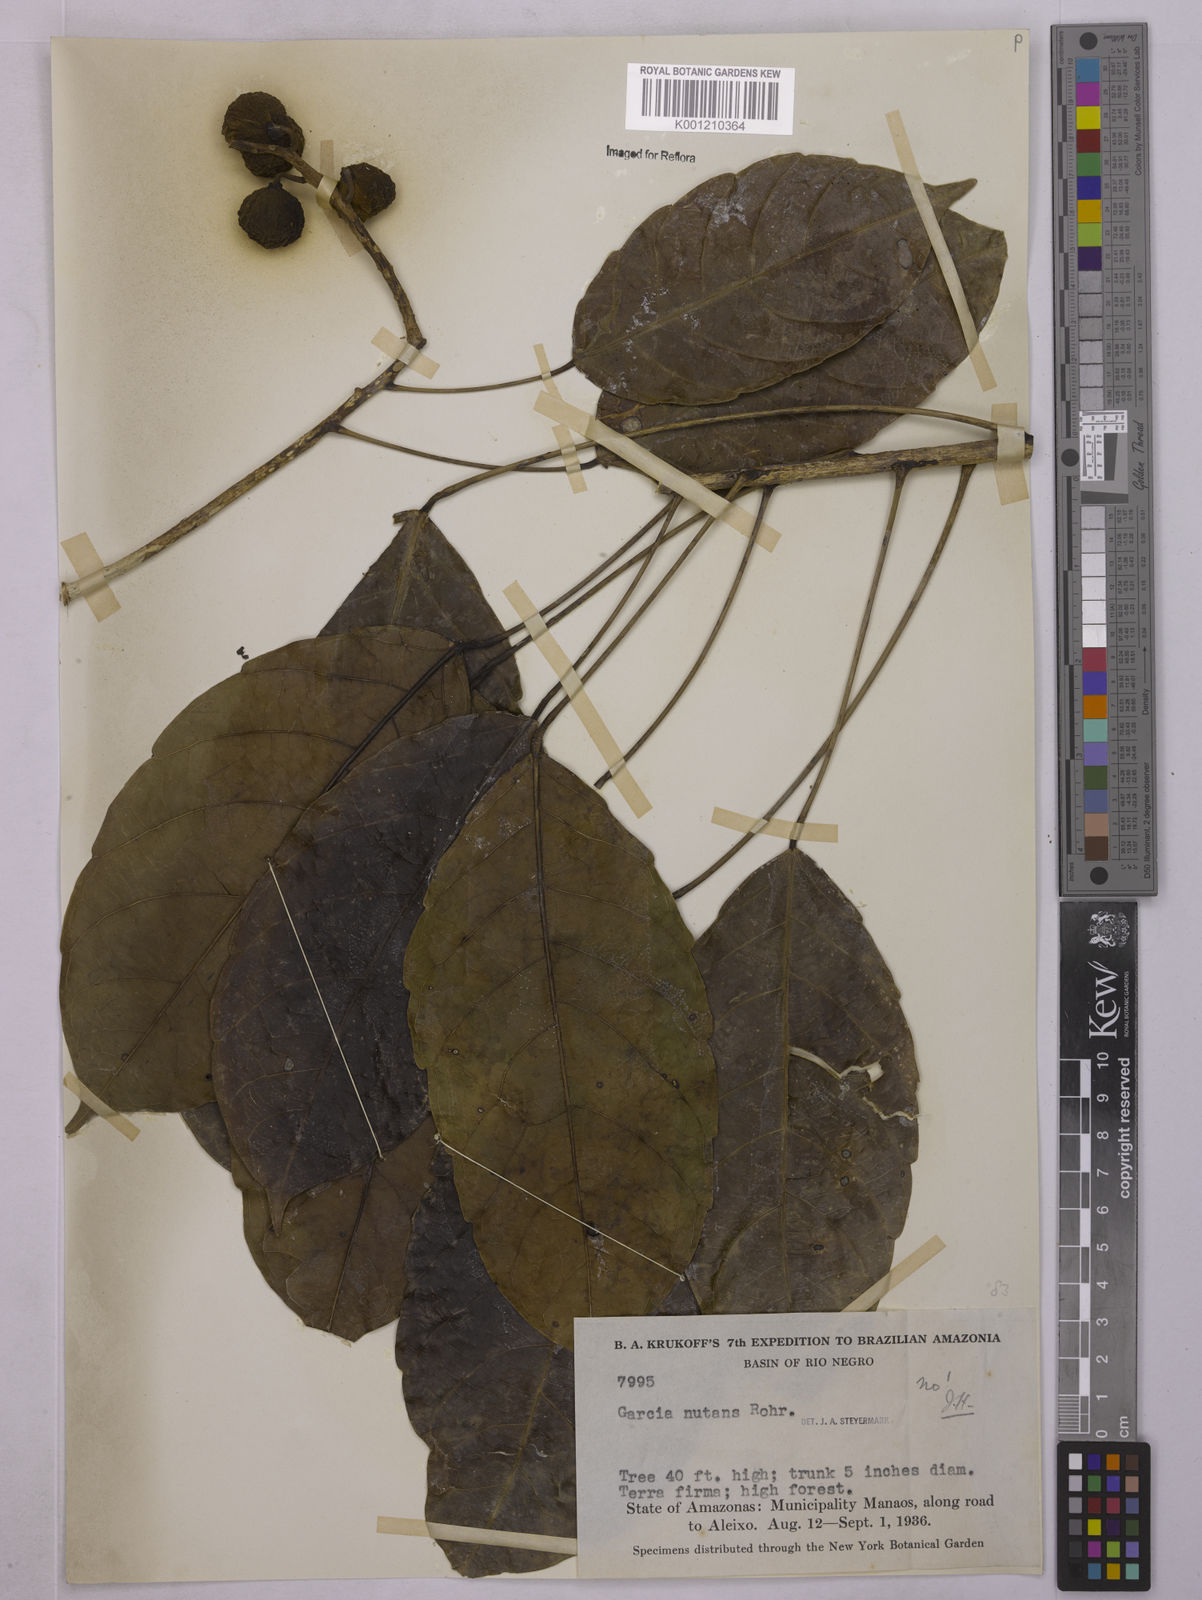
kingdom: Plantae
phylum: Tracheophyta
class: Magnoliopsida
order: Malpighiales
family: Euphorbiaceae
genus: Garcia
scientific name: Garcia nutans
